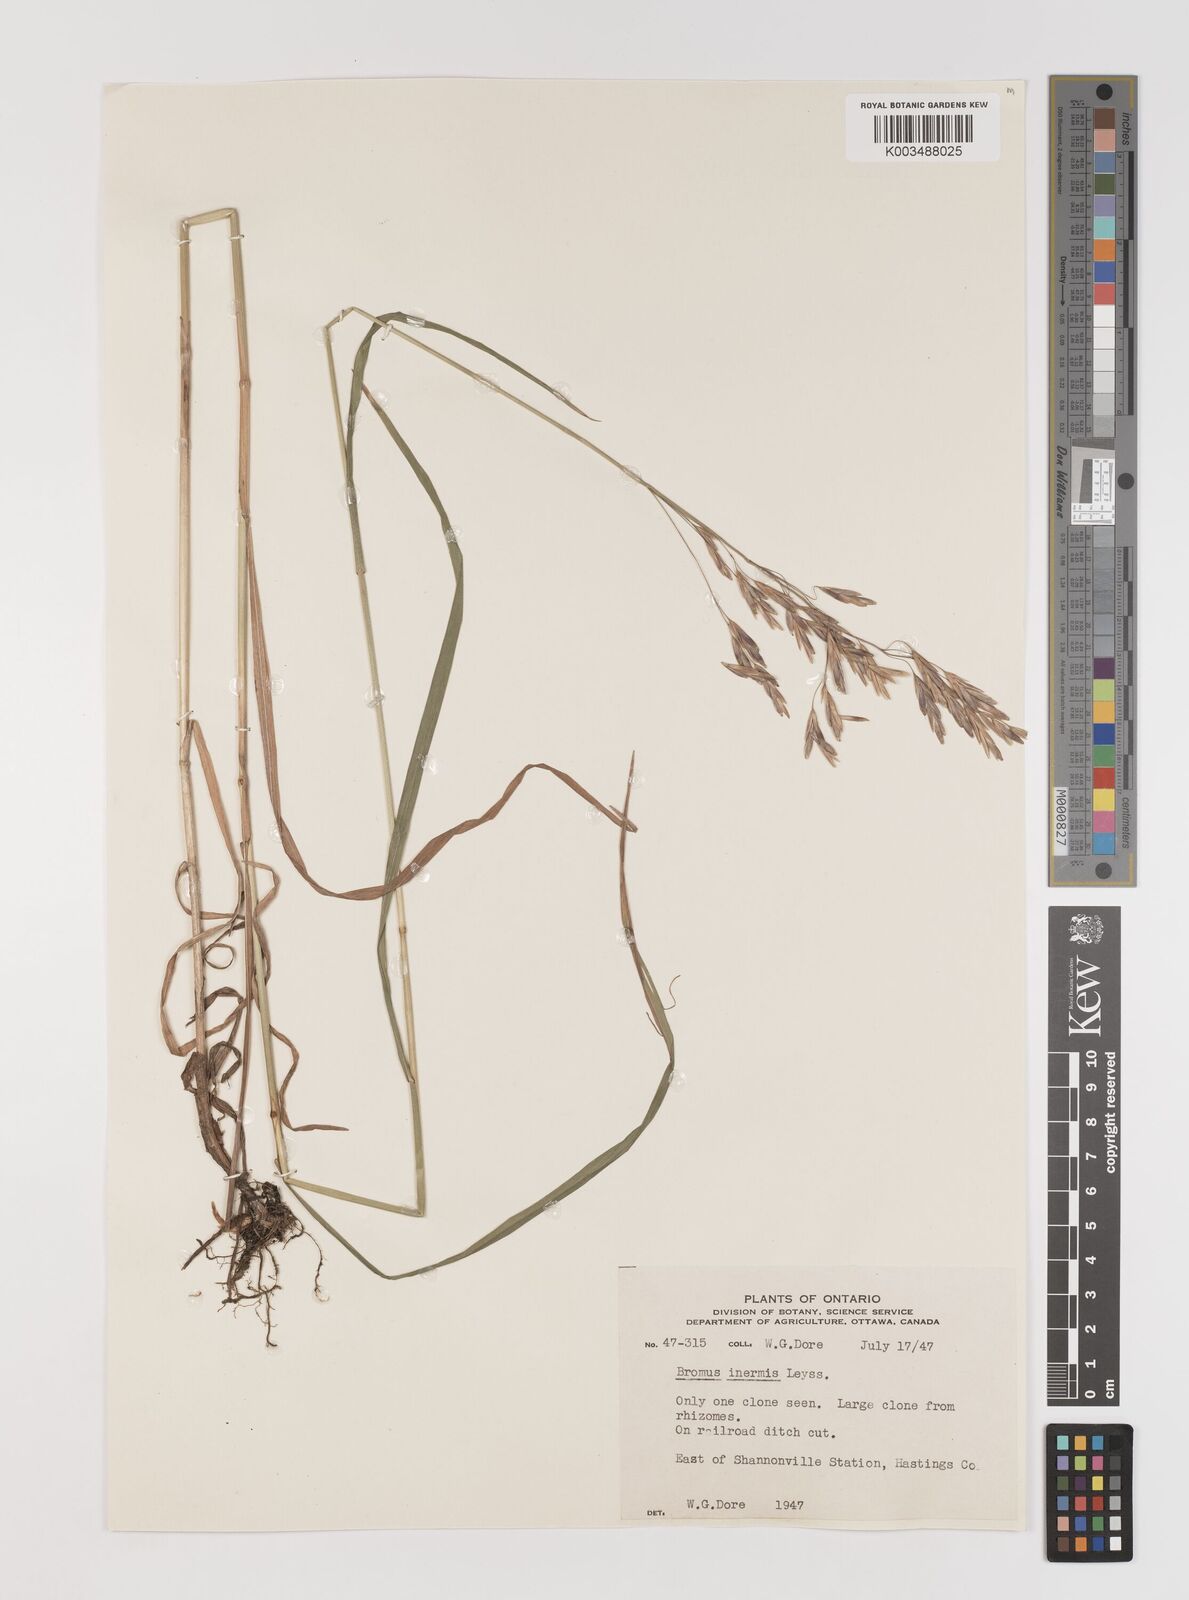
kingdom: Plantae
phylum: Tracheophyta
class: Liliopsida
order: Poales
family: Poaceae
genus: Bromus
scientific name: Bromus inermis
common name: Smooth brome
